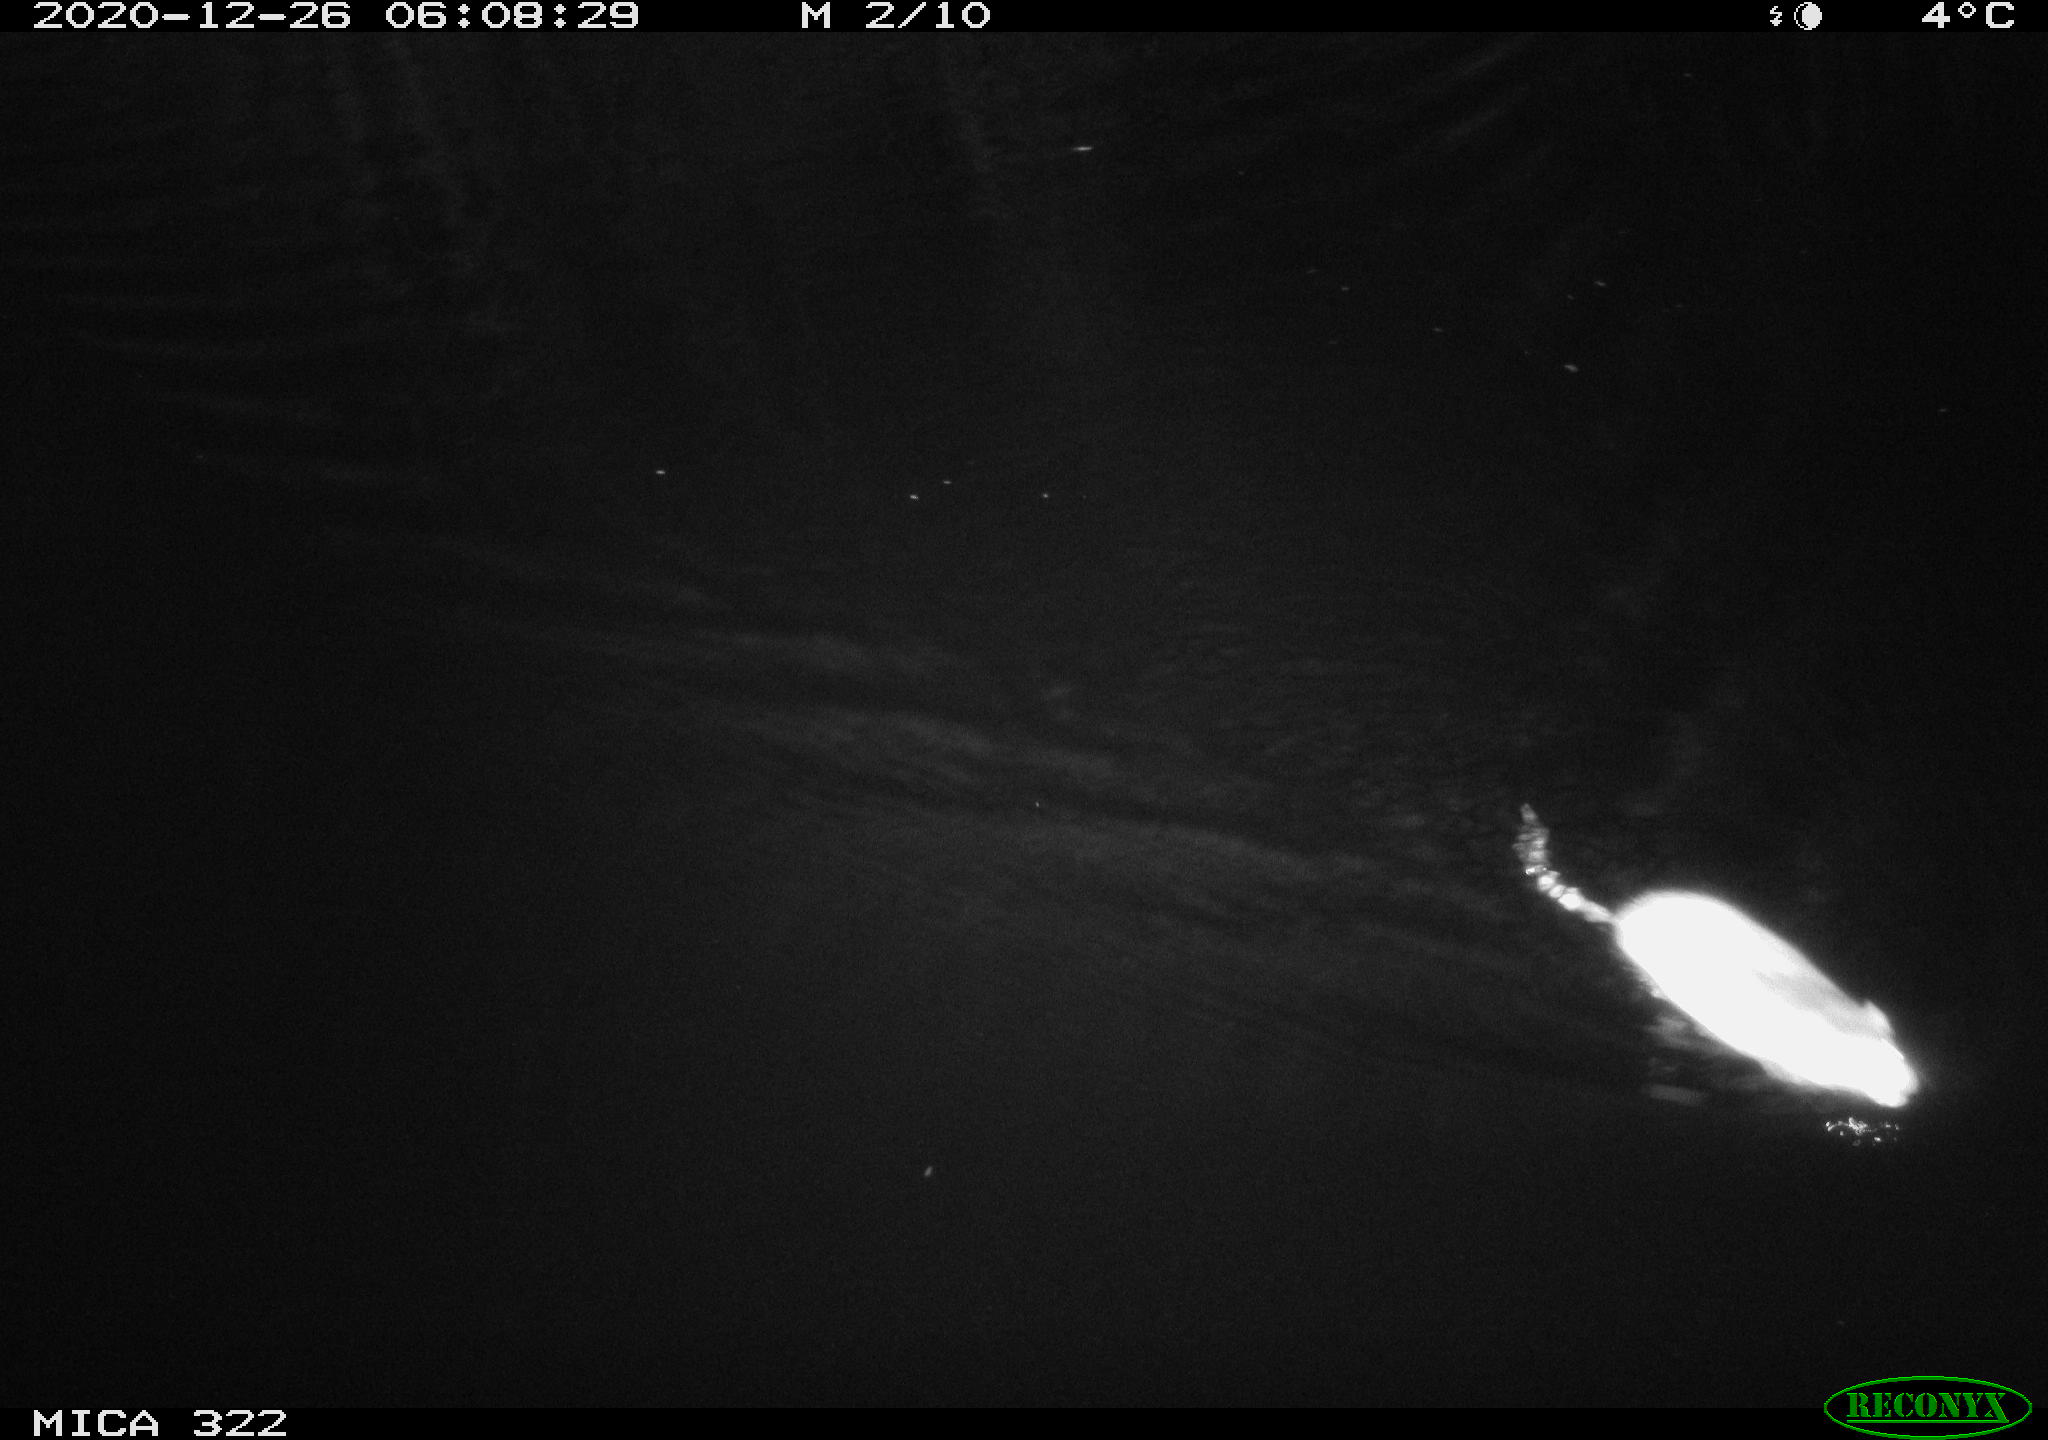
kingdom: Animalia
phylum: Chordata
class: Mammalia
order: Rodentia
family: Muridae
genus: Rattus
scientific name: Rattus norvegicus
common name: Brown rat
